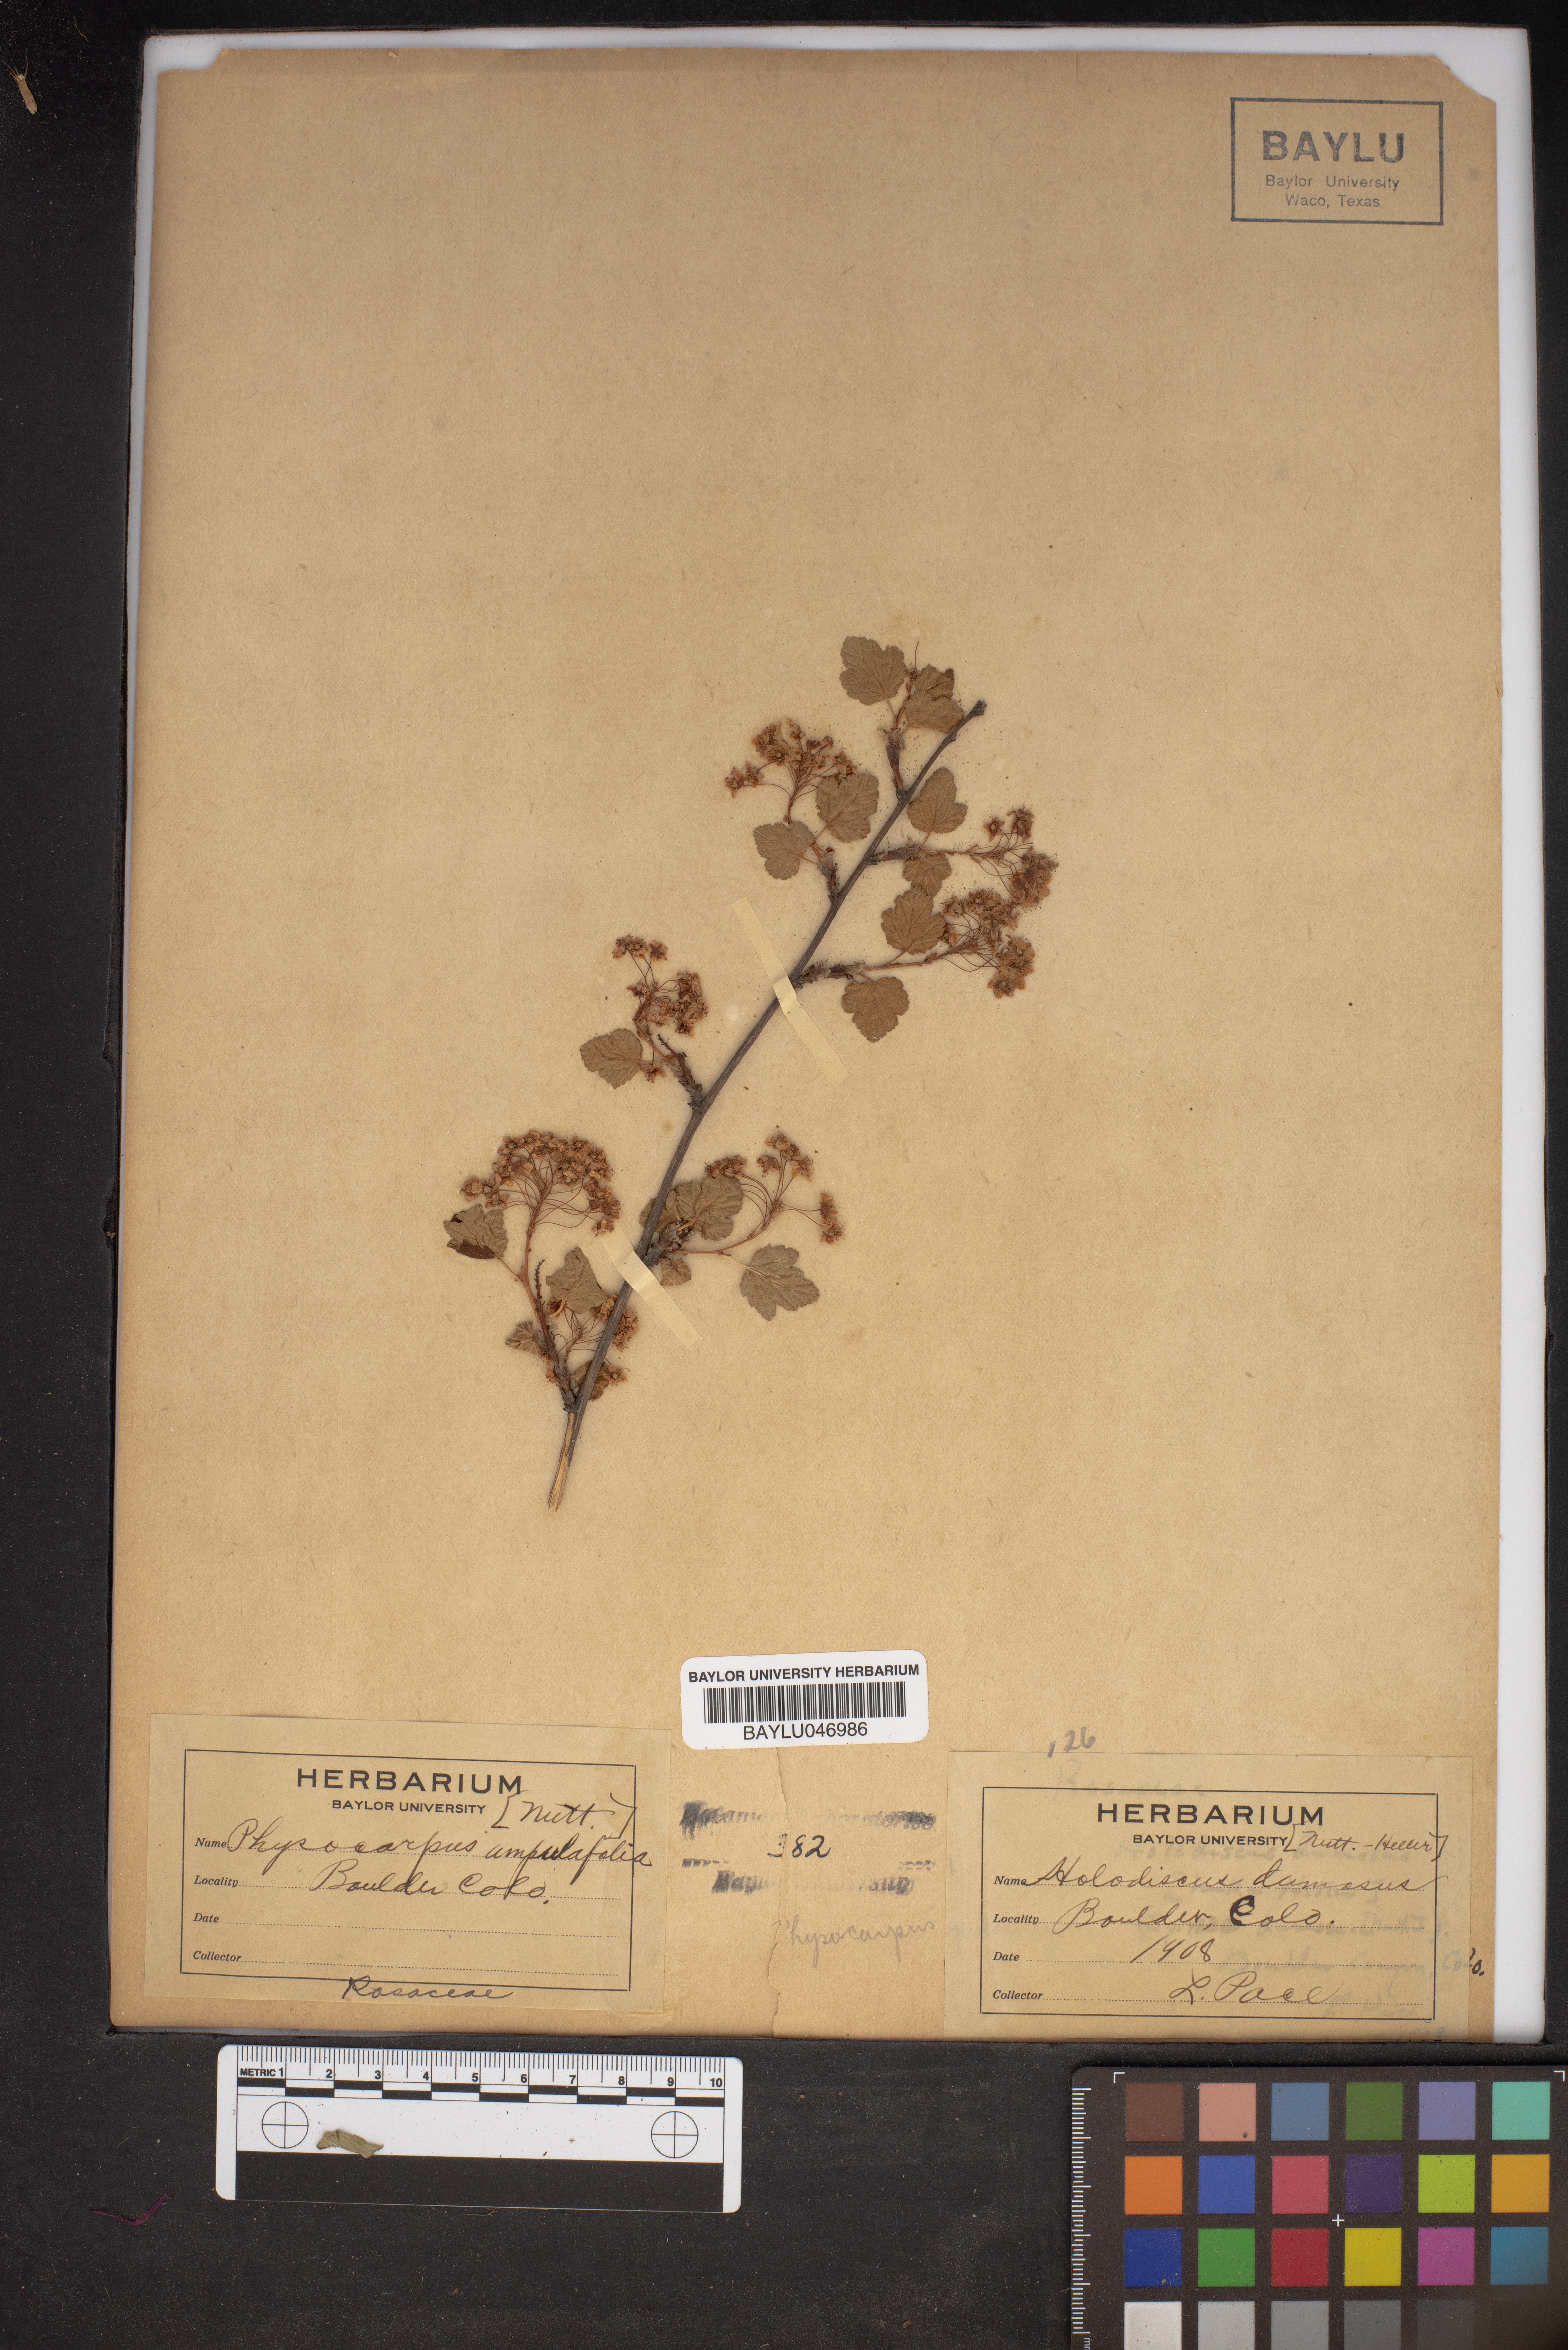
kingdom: Plantae
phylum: Tracheophyta
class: Magnoliopsida
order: Rosales
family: Rosaceae
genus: Holodiscus
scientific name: Holodiscus
